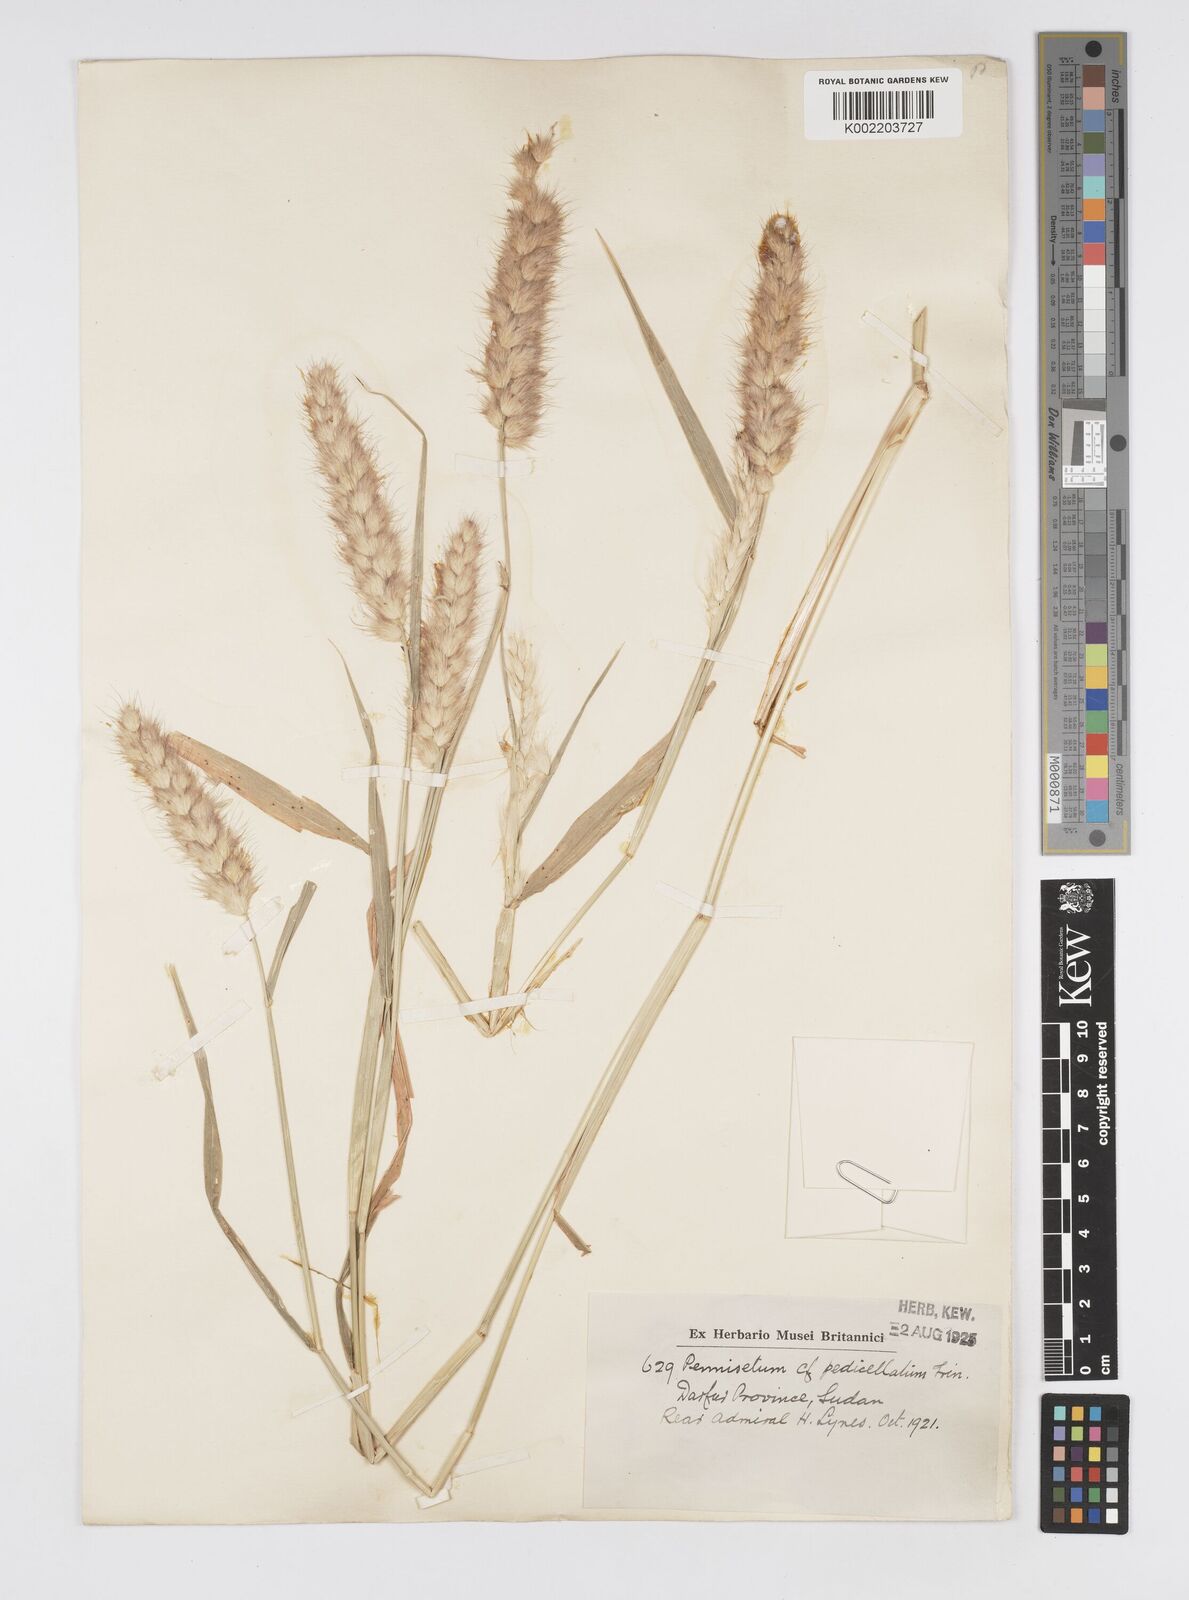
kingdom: Plantae
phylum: Tracheophyta
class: Liliopsida
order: Poales
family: Poaceae
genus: Cenchrus
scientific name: Cenchrus pedicellatus
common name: Hairy fountain grass
